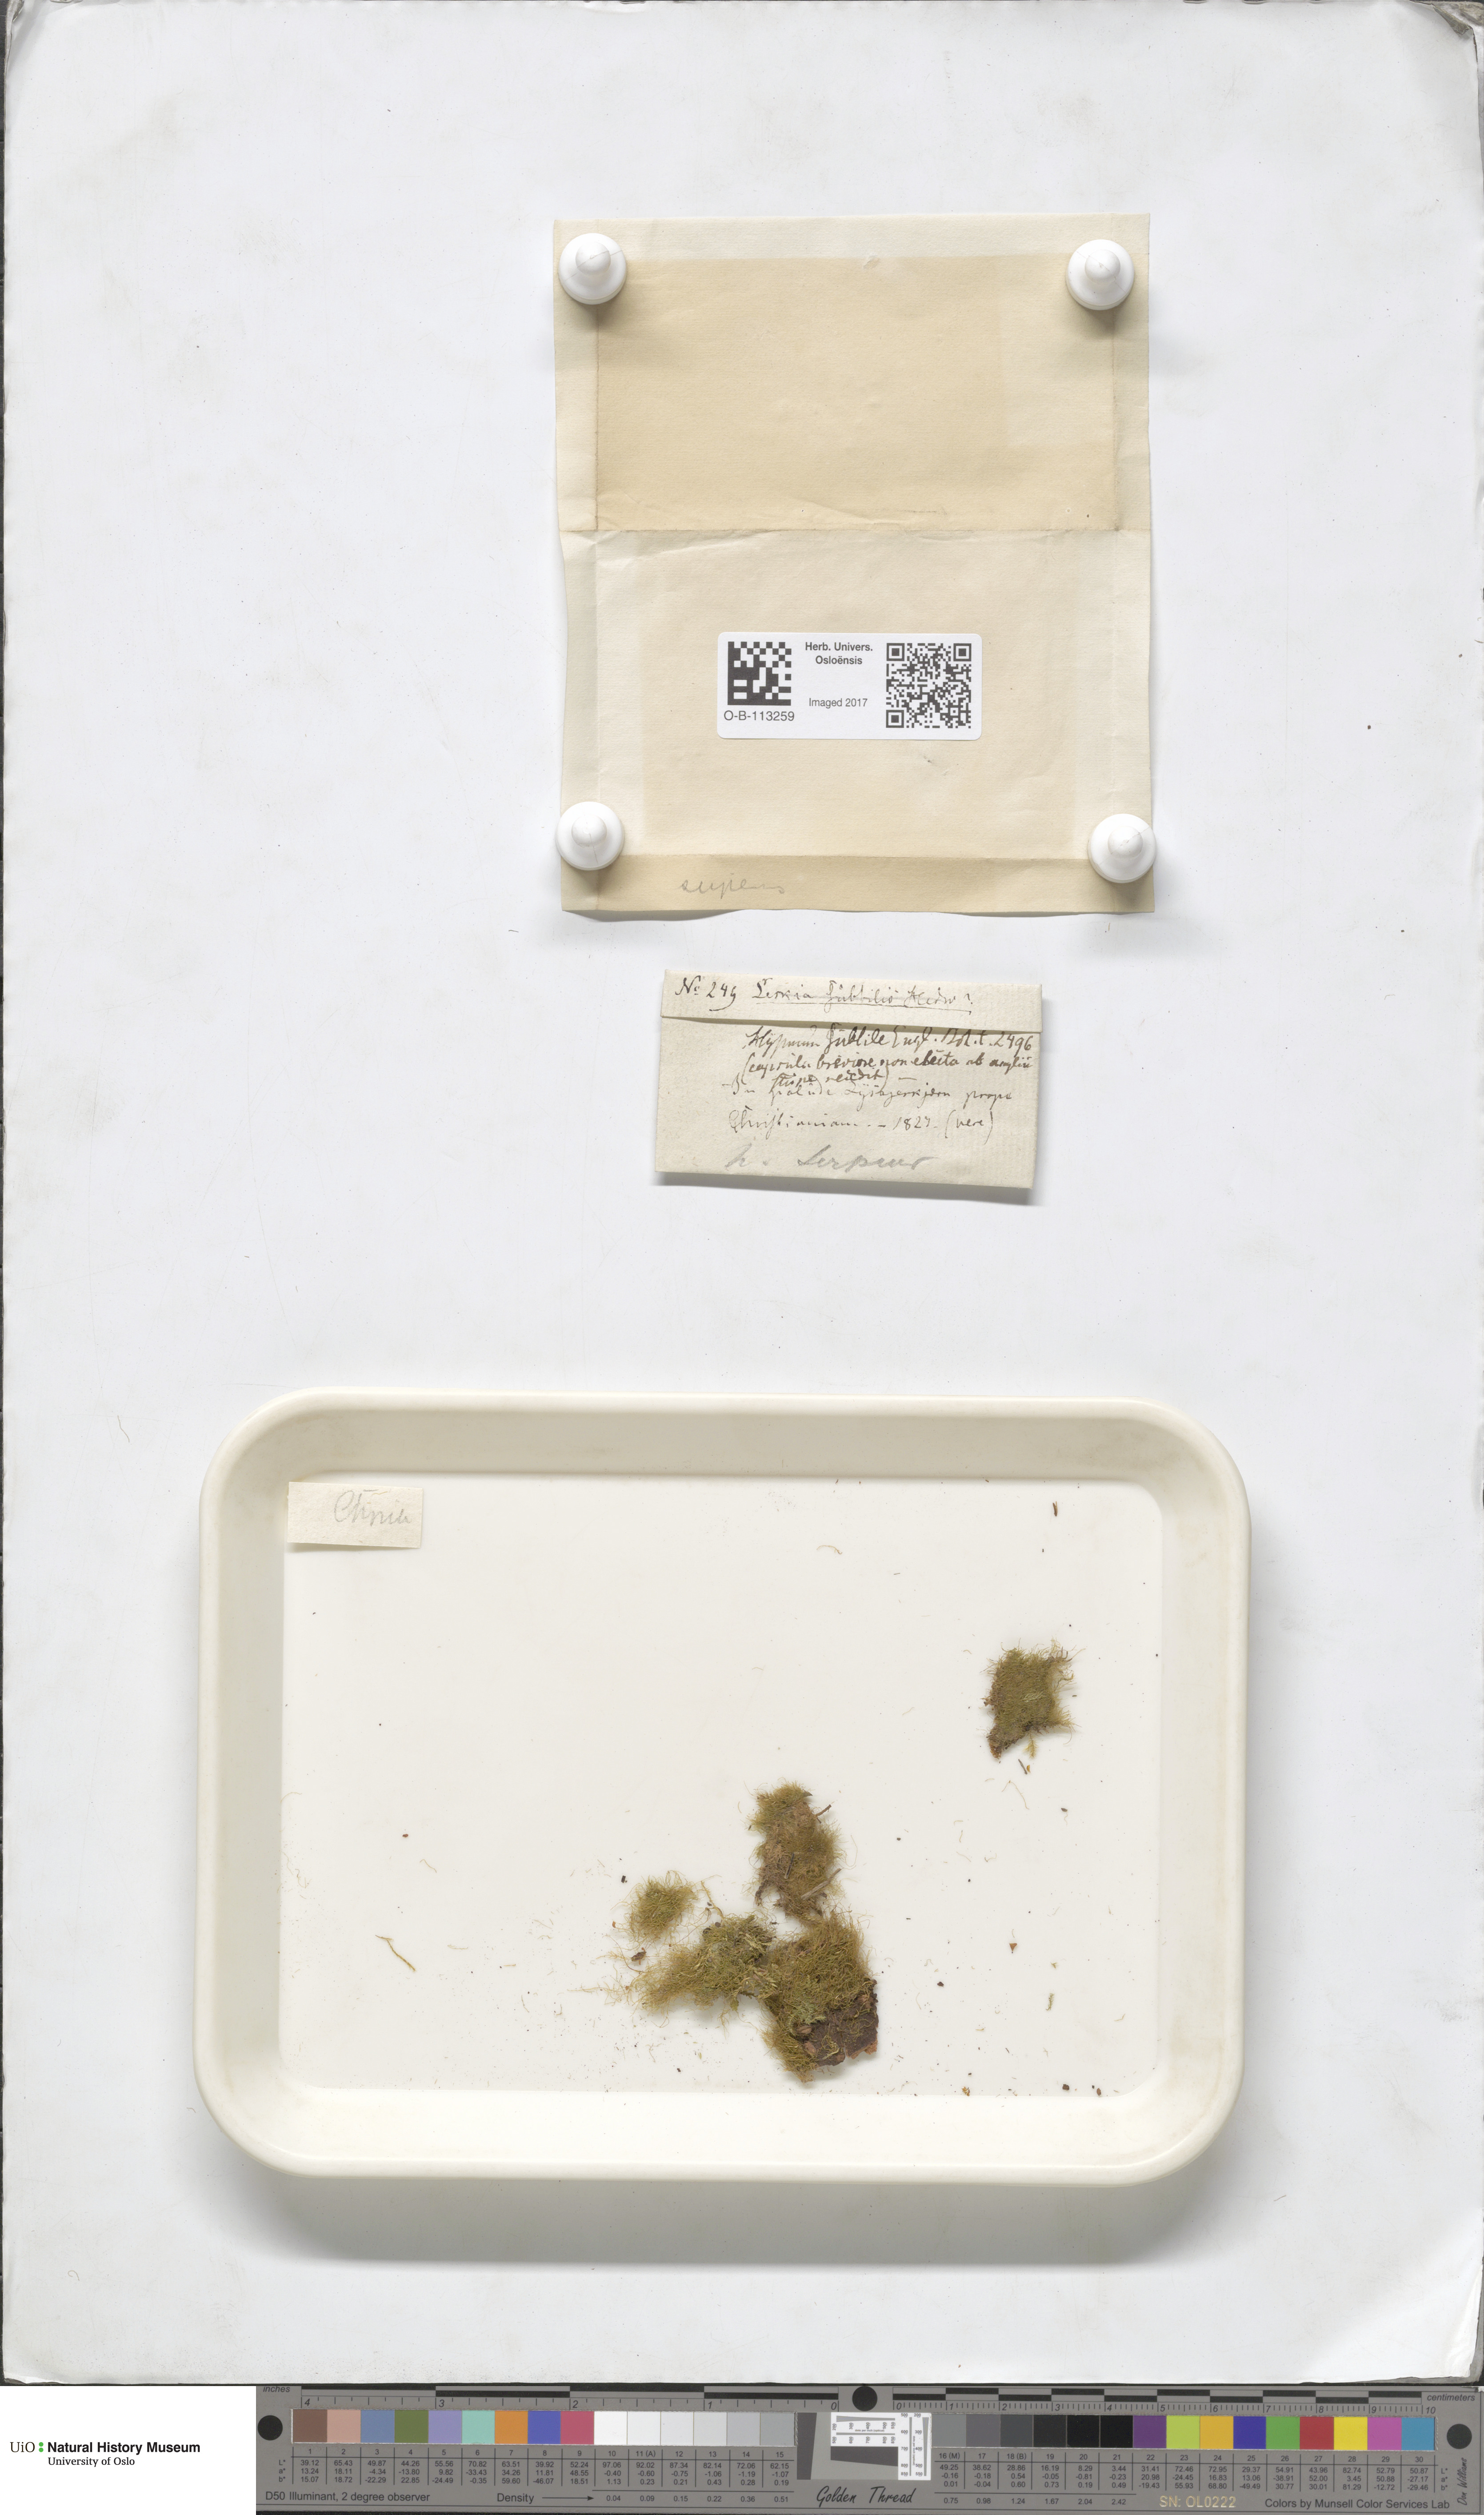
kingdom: Plantae
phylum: Bryophyta
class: Bryopsida
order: Hypnales
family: Amblystegiaceae
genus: Amblystegium
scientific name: Amblystegium serpens
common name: Jurkatzka's feather moss
